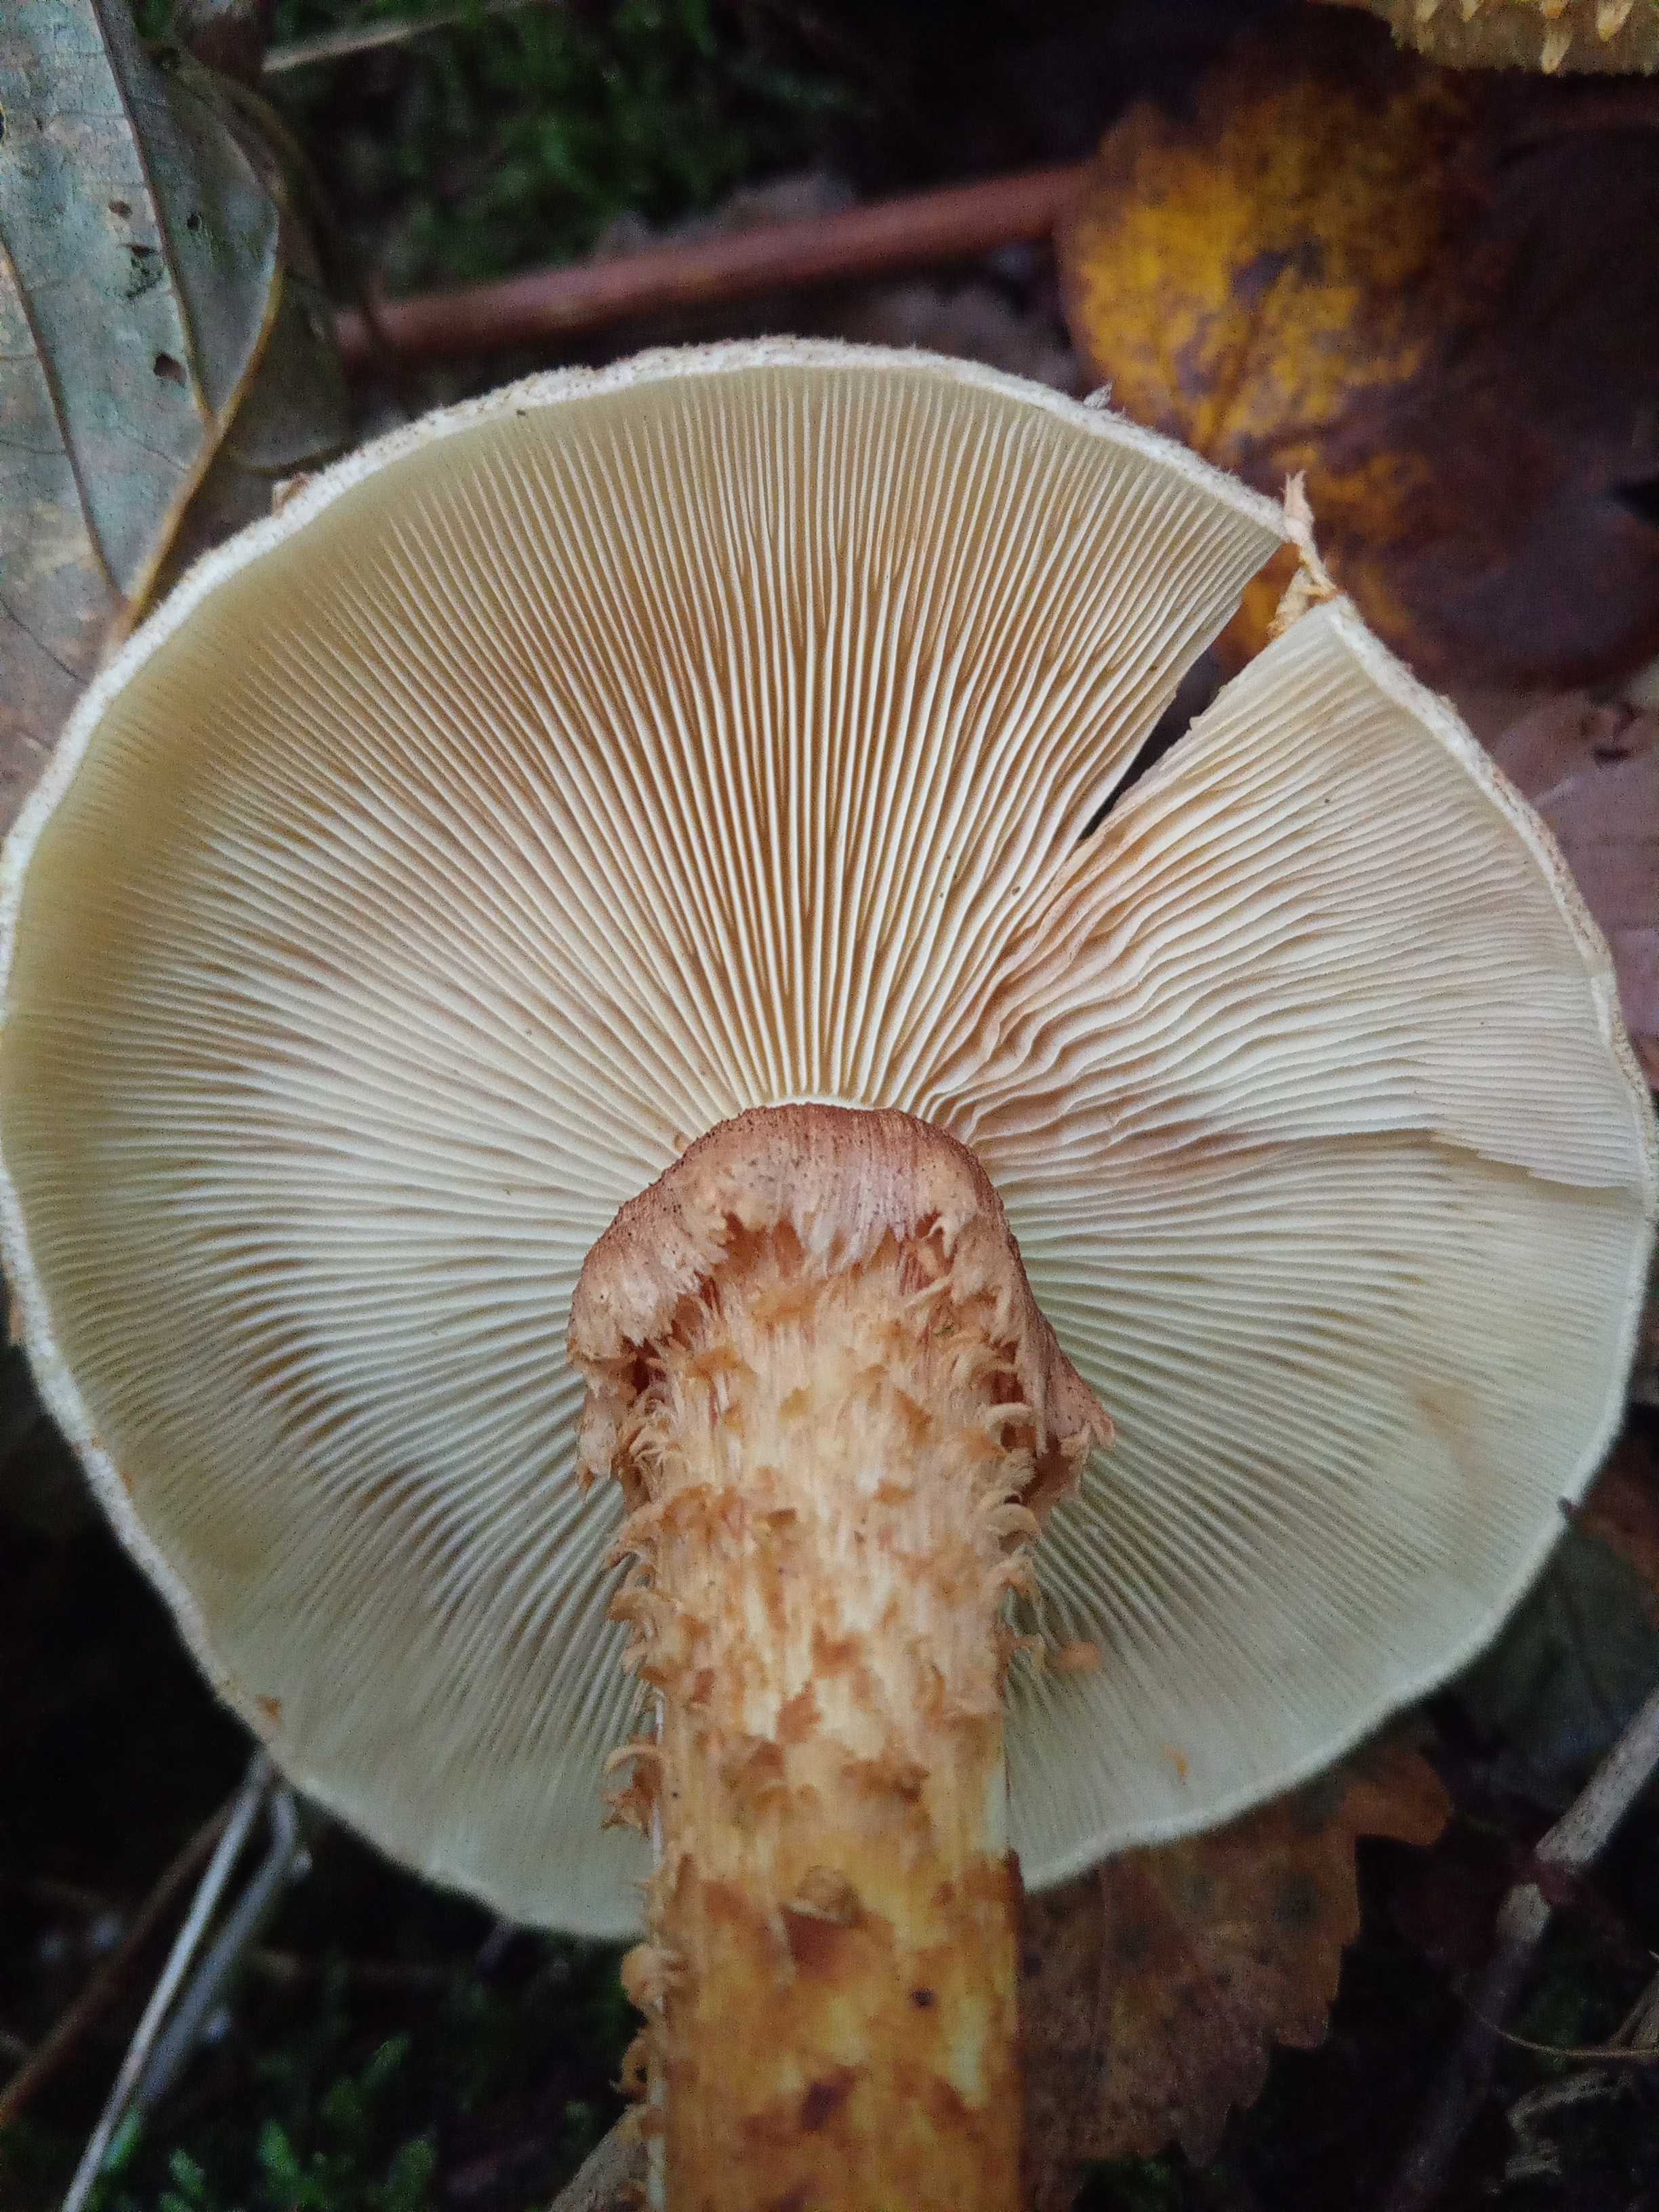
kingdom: Fungi
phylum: Basidiomycota
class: Agaricomycetes
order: Agaricales
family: Strophariaceae
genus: Pholiota
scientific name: Pholiota squarrosa
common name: krumskællet skælhat
